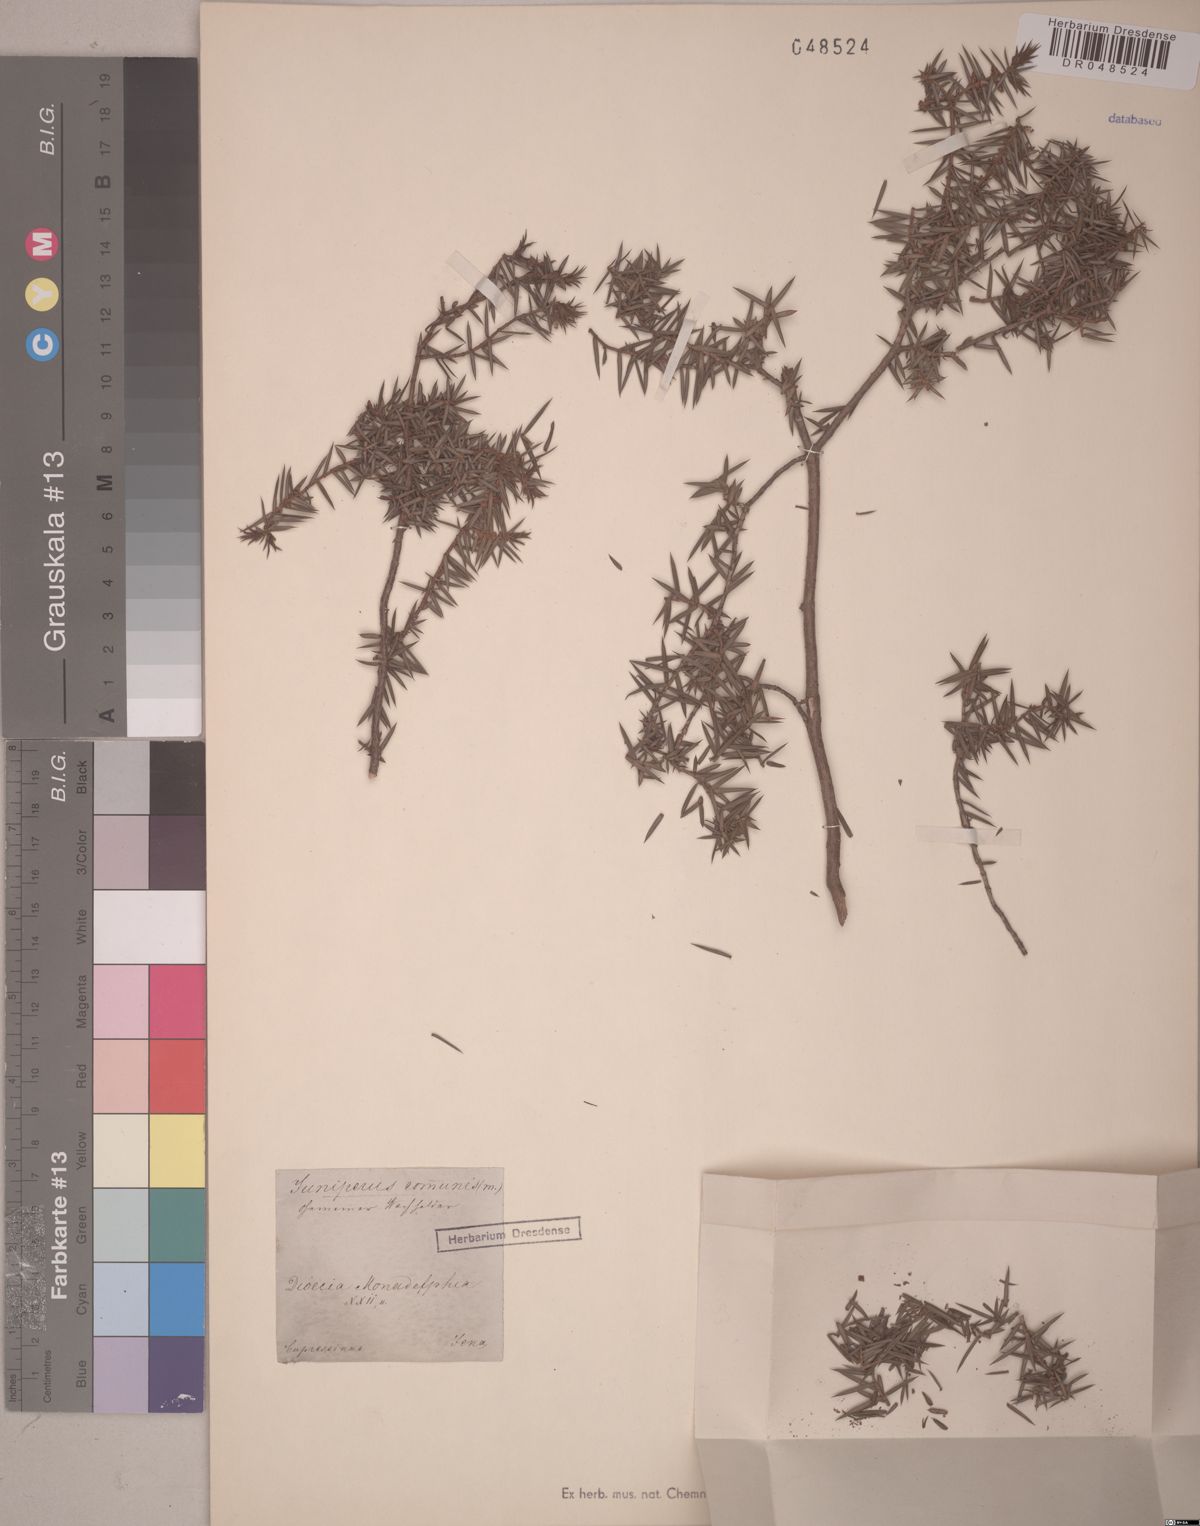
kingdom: Plantae
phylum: Tracheophyta
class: Pinopsida
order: Pinales
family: Cupressaceae
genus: Juniperus
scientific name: Juniperus communis
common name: Common juniper
